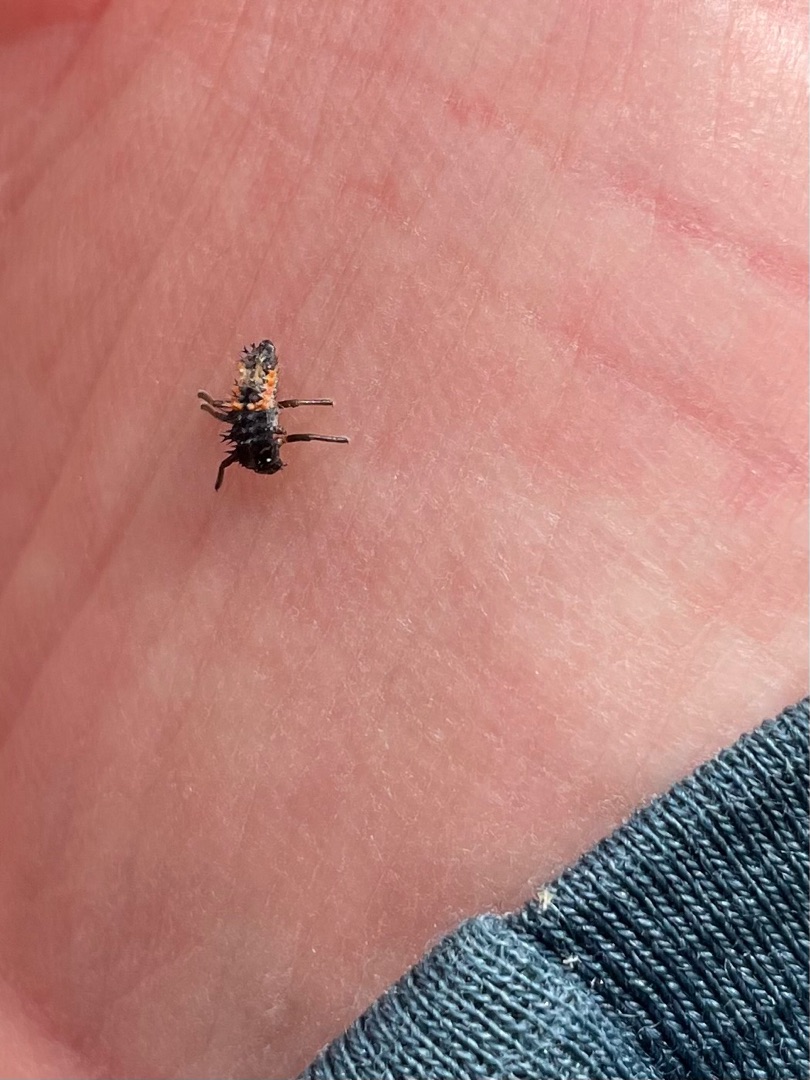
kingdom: Animalia
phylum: Arthropoda
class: Insecta
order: Coleoptera
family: Coccinellidae
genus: Harmonia
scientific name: Harmonia axyridis
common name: Harlekinmariehøne
